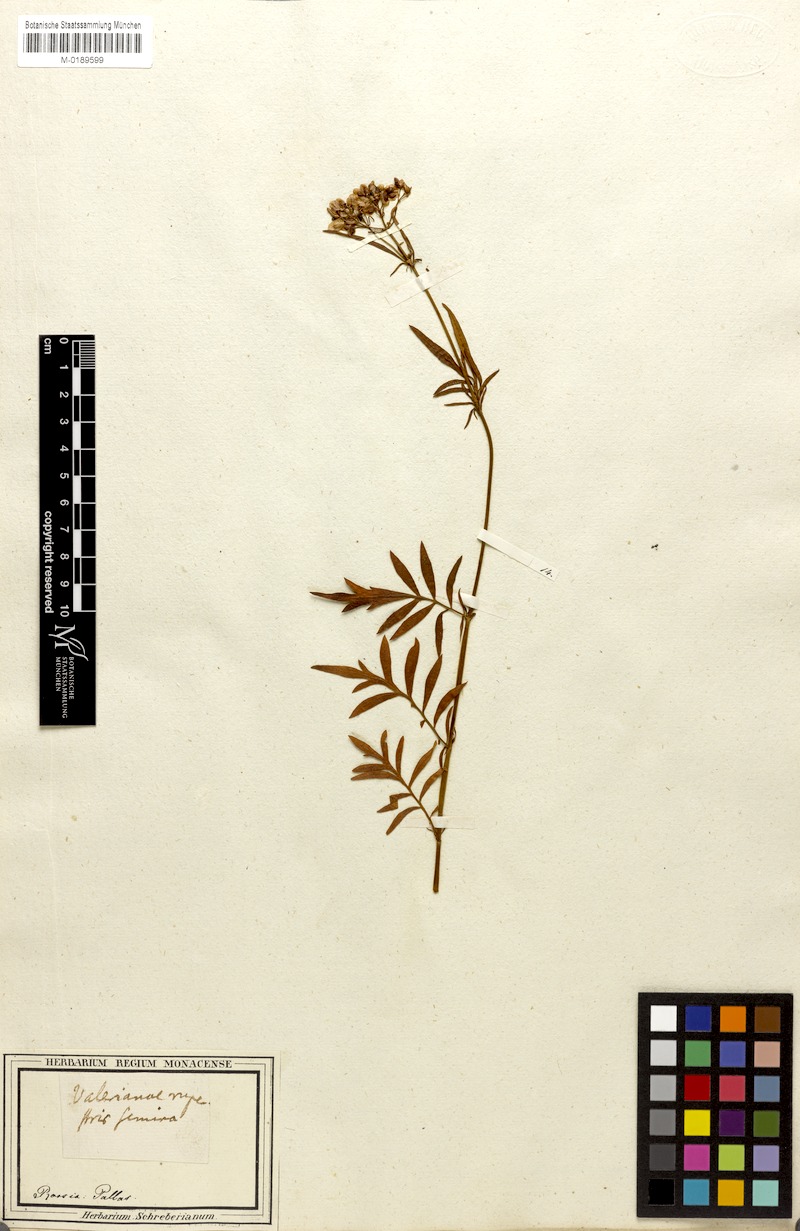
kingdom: Plantae
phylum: Tracheophyta
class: Magnoliopsida
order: Dipsacales
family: Caprifoliaceae
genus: Patrinia
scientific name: Patrinia rupestris
